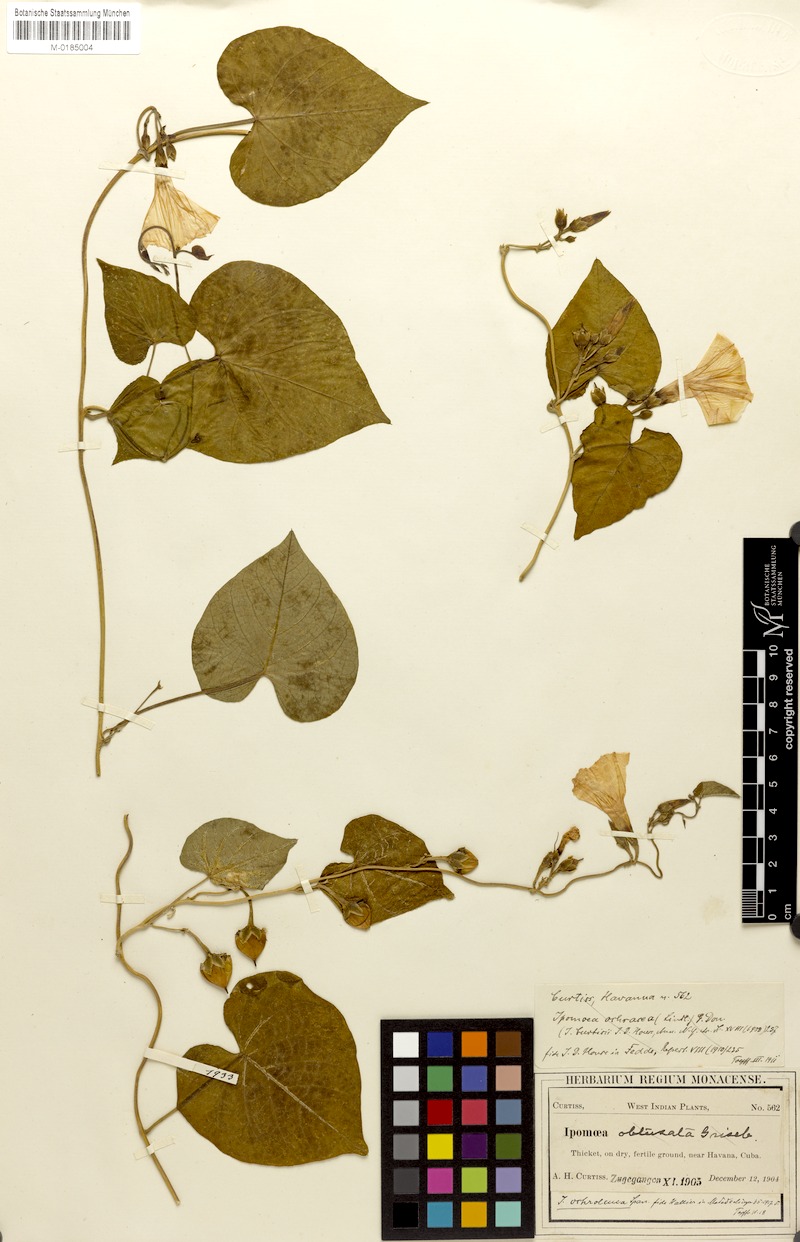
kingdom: Plantae
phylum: Tracheophyta
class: Magnoliopsida
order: Solanales
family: Convolvulaceae
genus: Ipomoea
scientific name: Ipomoea ochracea
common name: Fence morning-glory
